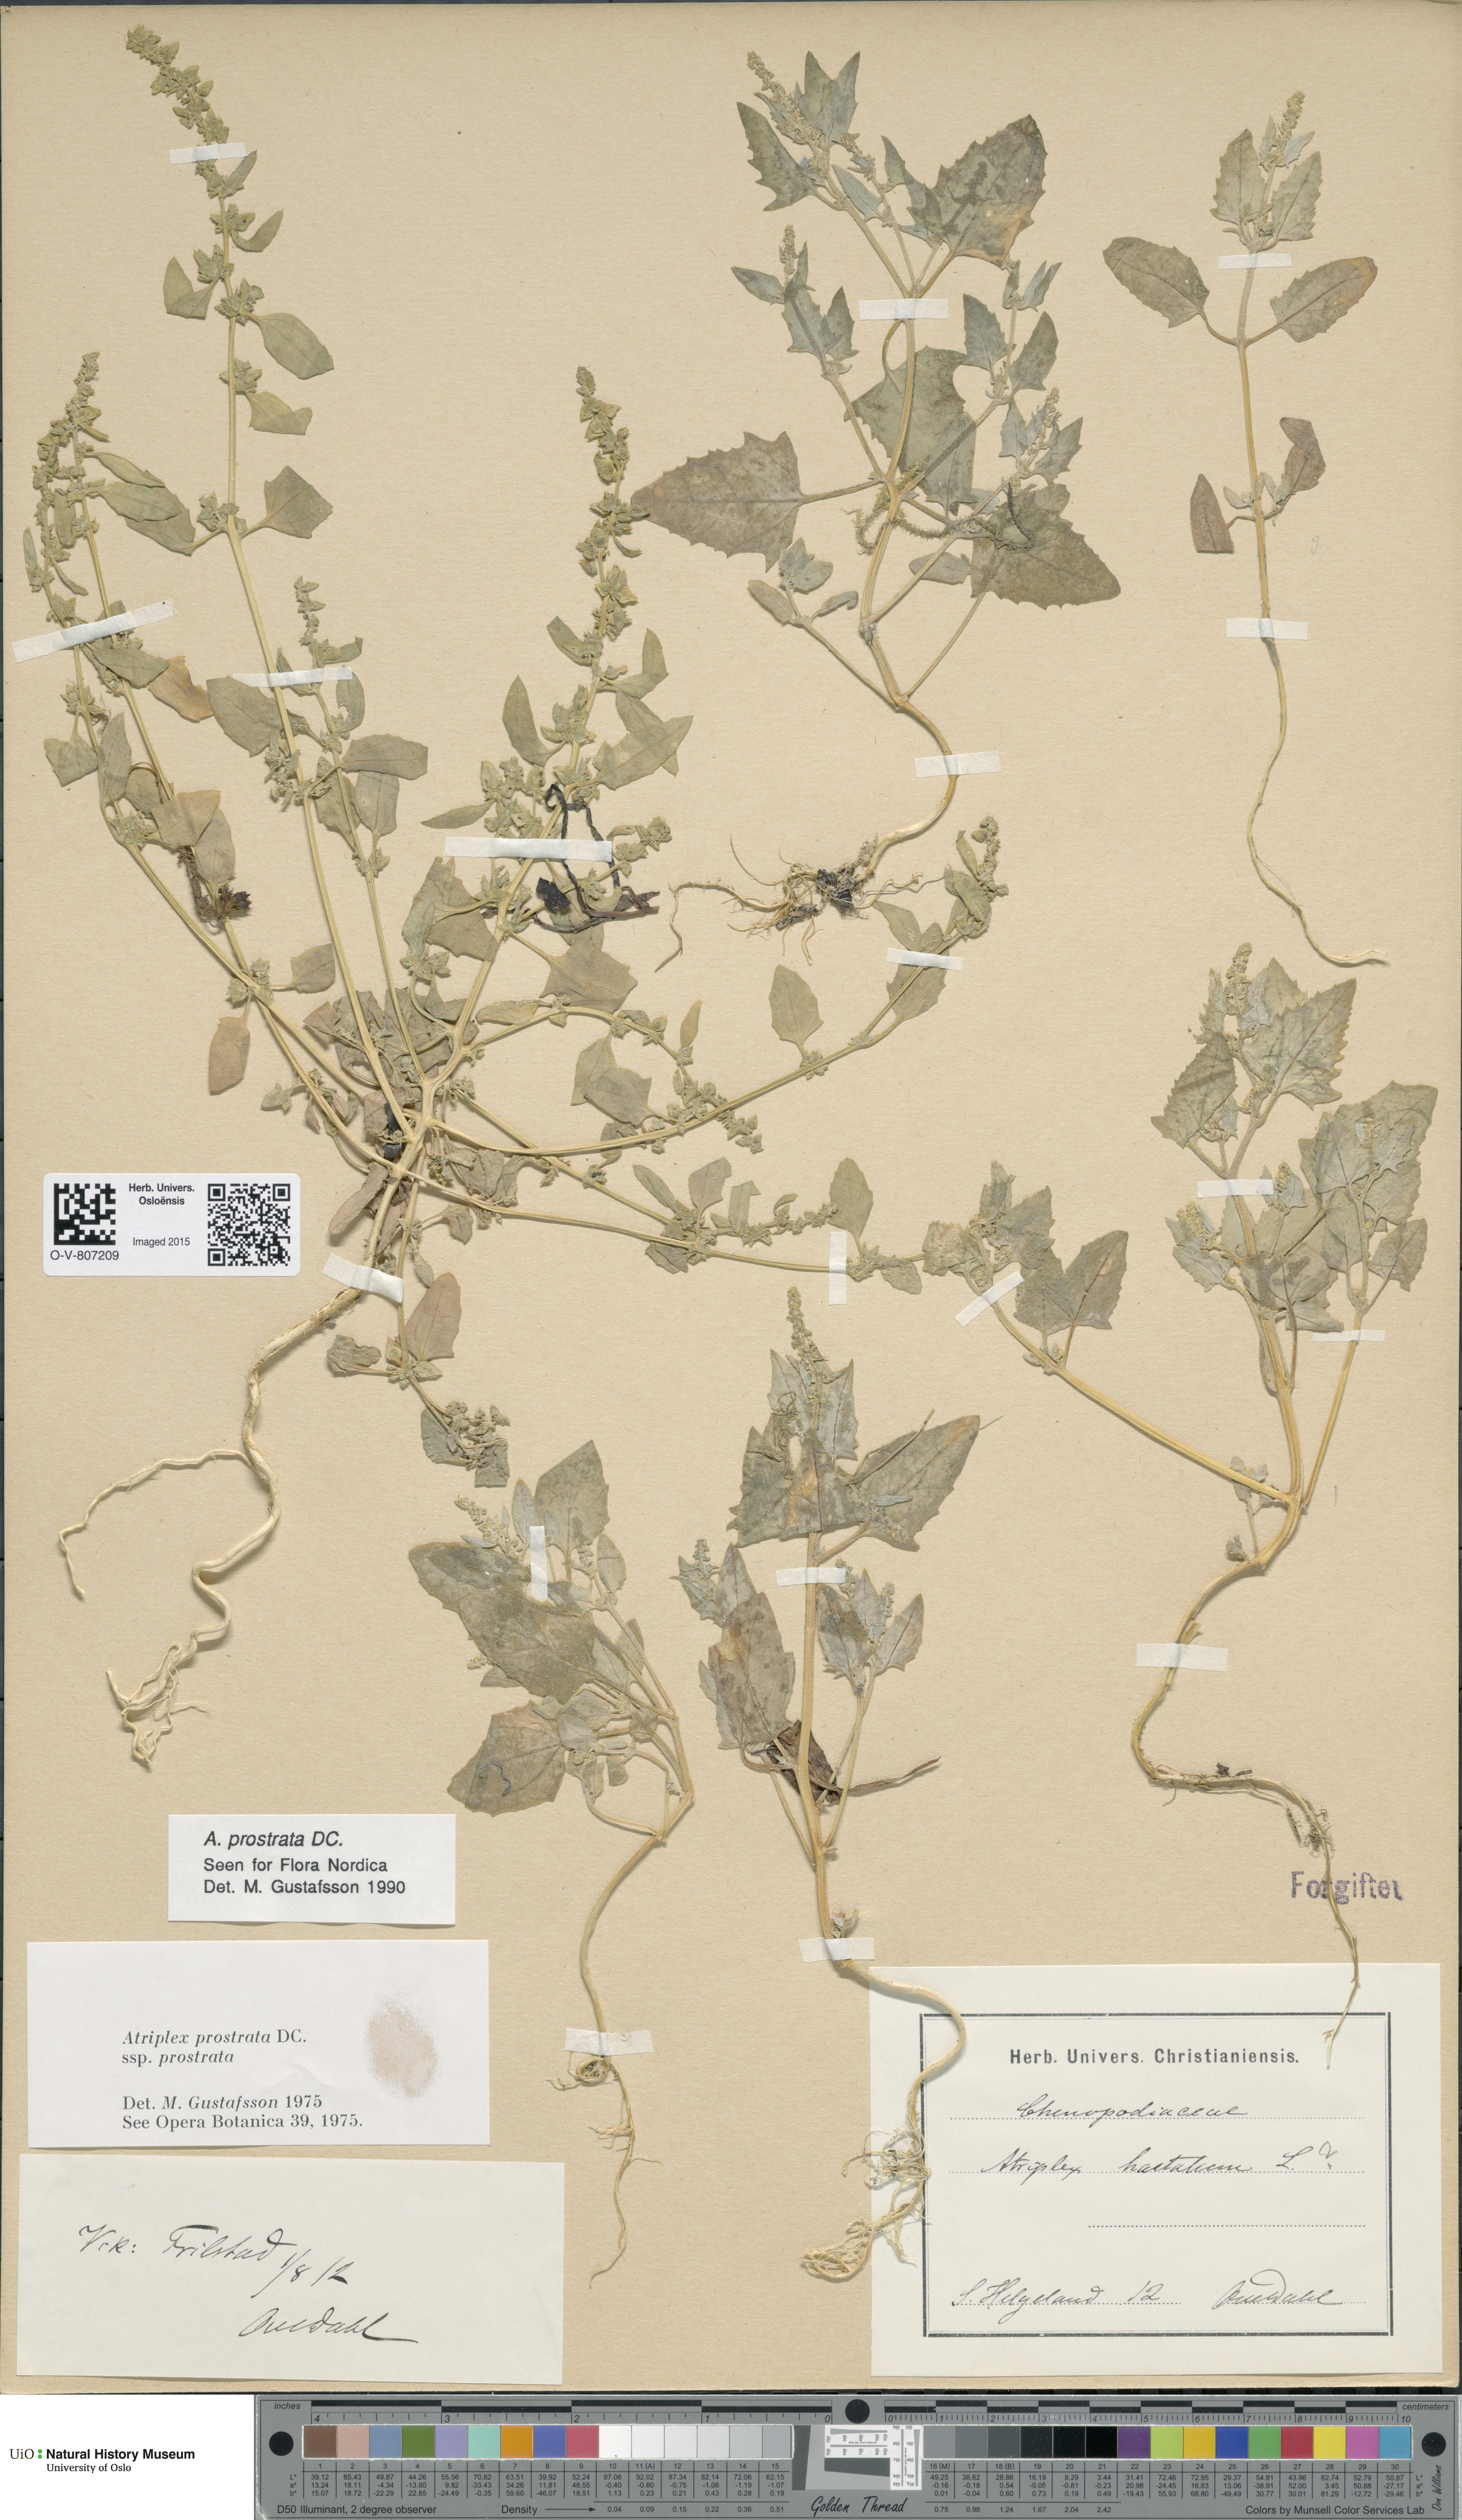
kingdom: Plantae
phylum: Tracheophyta
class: Magnoliopsida
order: Caryophyllales
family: Amaranthaceae
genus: Atriplex
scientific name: Atriplex prostrata
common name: Spear-leaved orache
